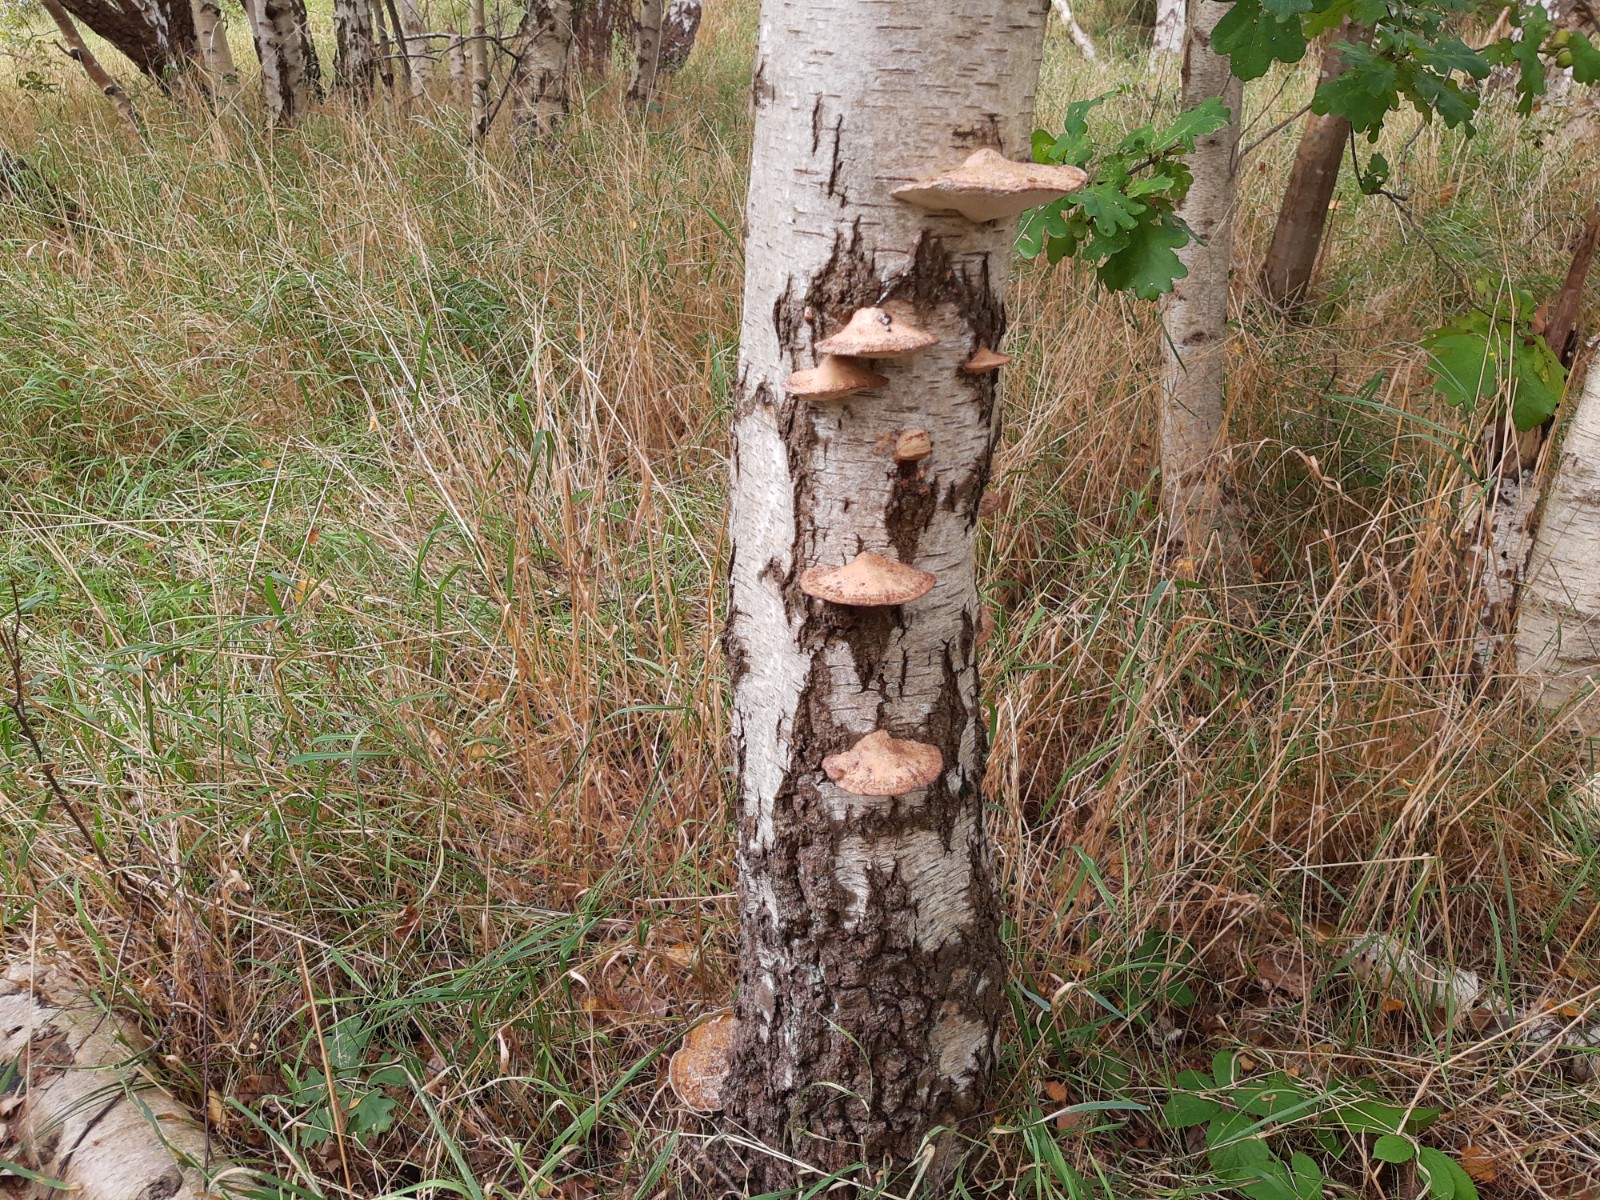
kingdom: Fungi
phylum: Basidiomycota
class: Agaricomycetes
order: Polyporales
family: Polyporaceae
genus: Daedaleopsis
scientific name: Daedaleopsis confragosa
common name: rødmende læderporesvamp
